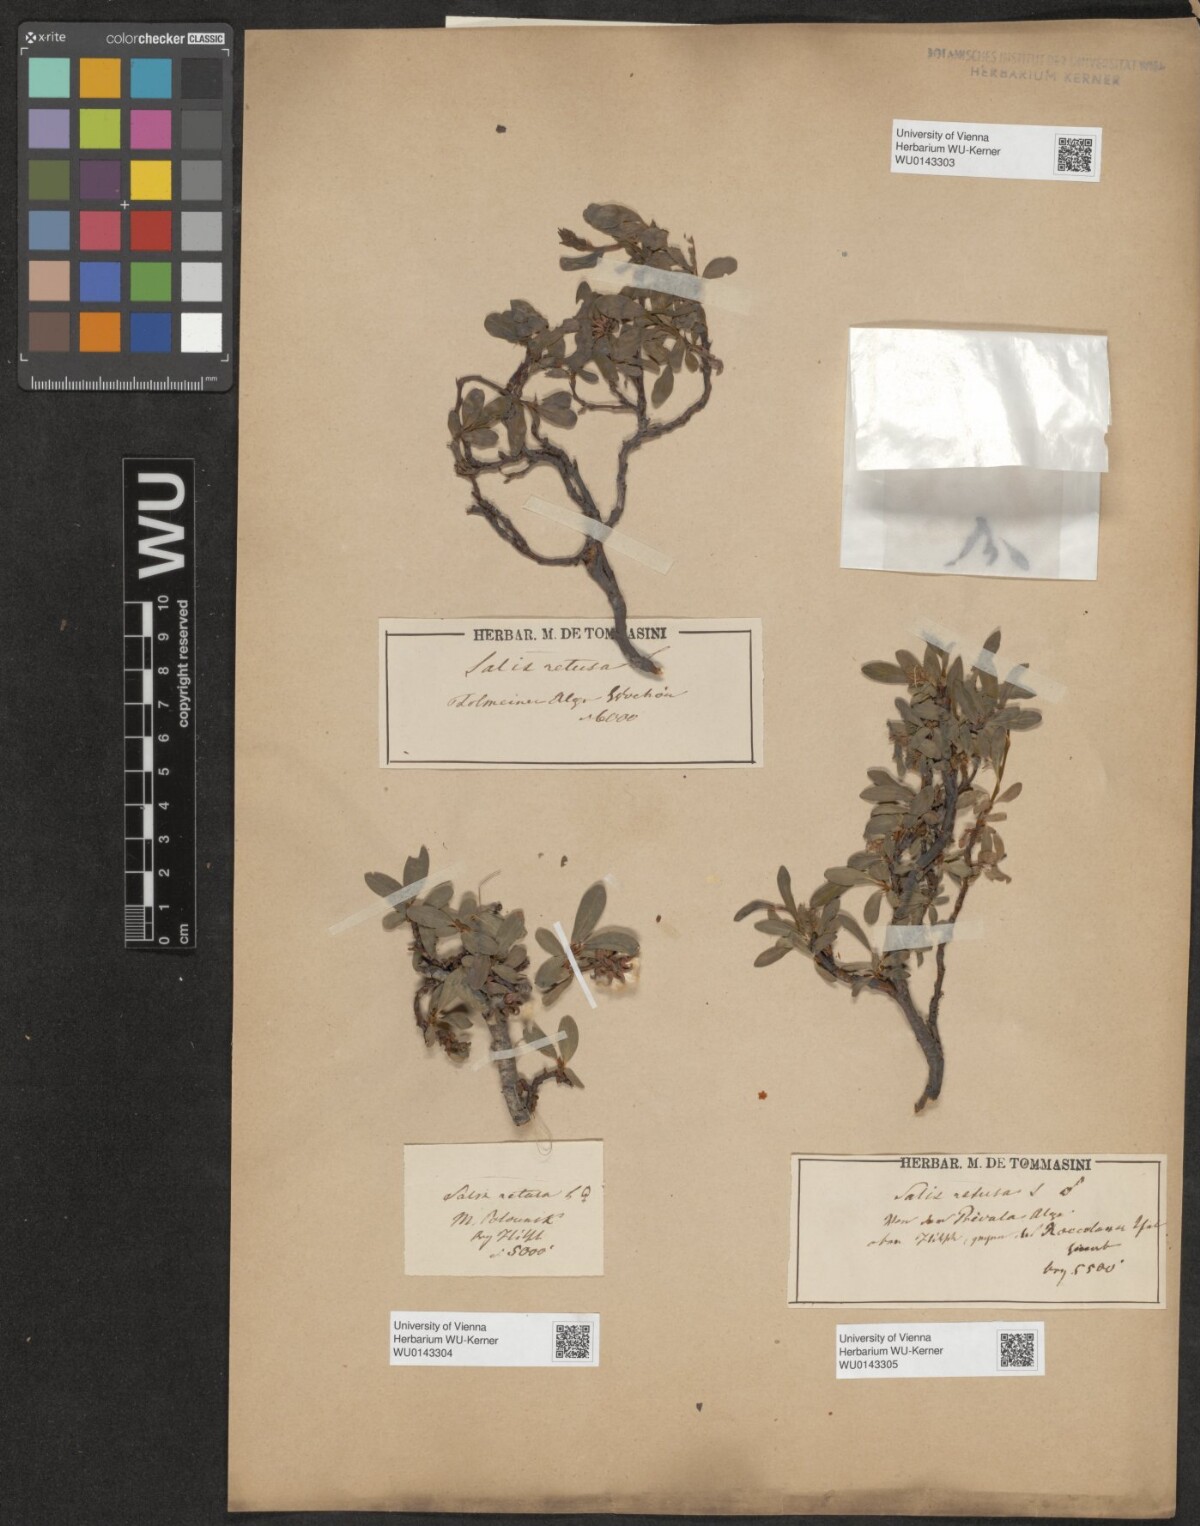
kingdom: Plantae
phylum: Tracheophyta
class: Magnoliopsida
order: Malpighiales
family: Salicaceae
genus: Salix
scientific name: Salix retusa
